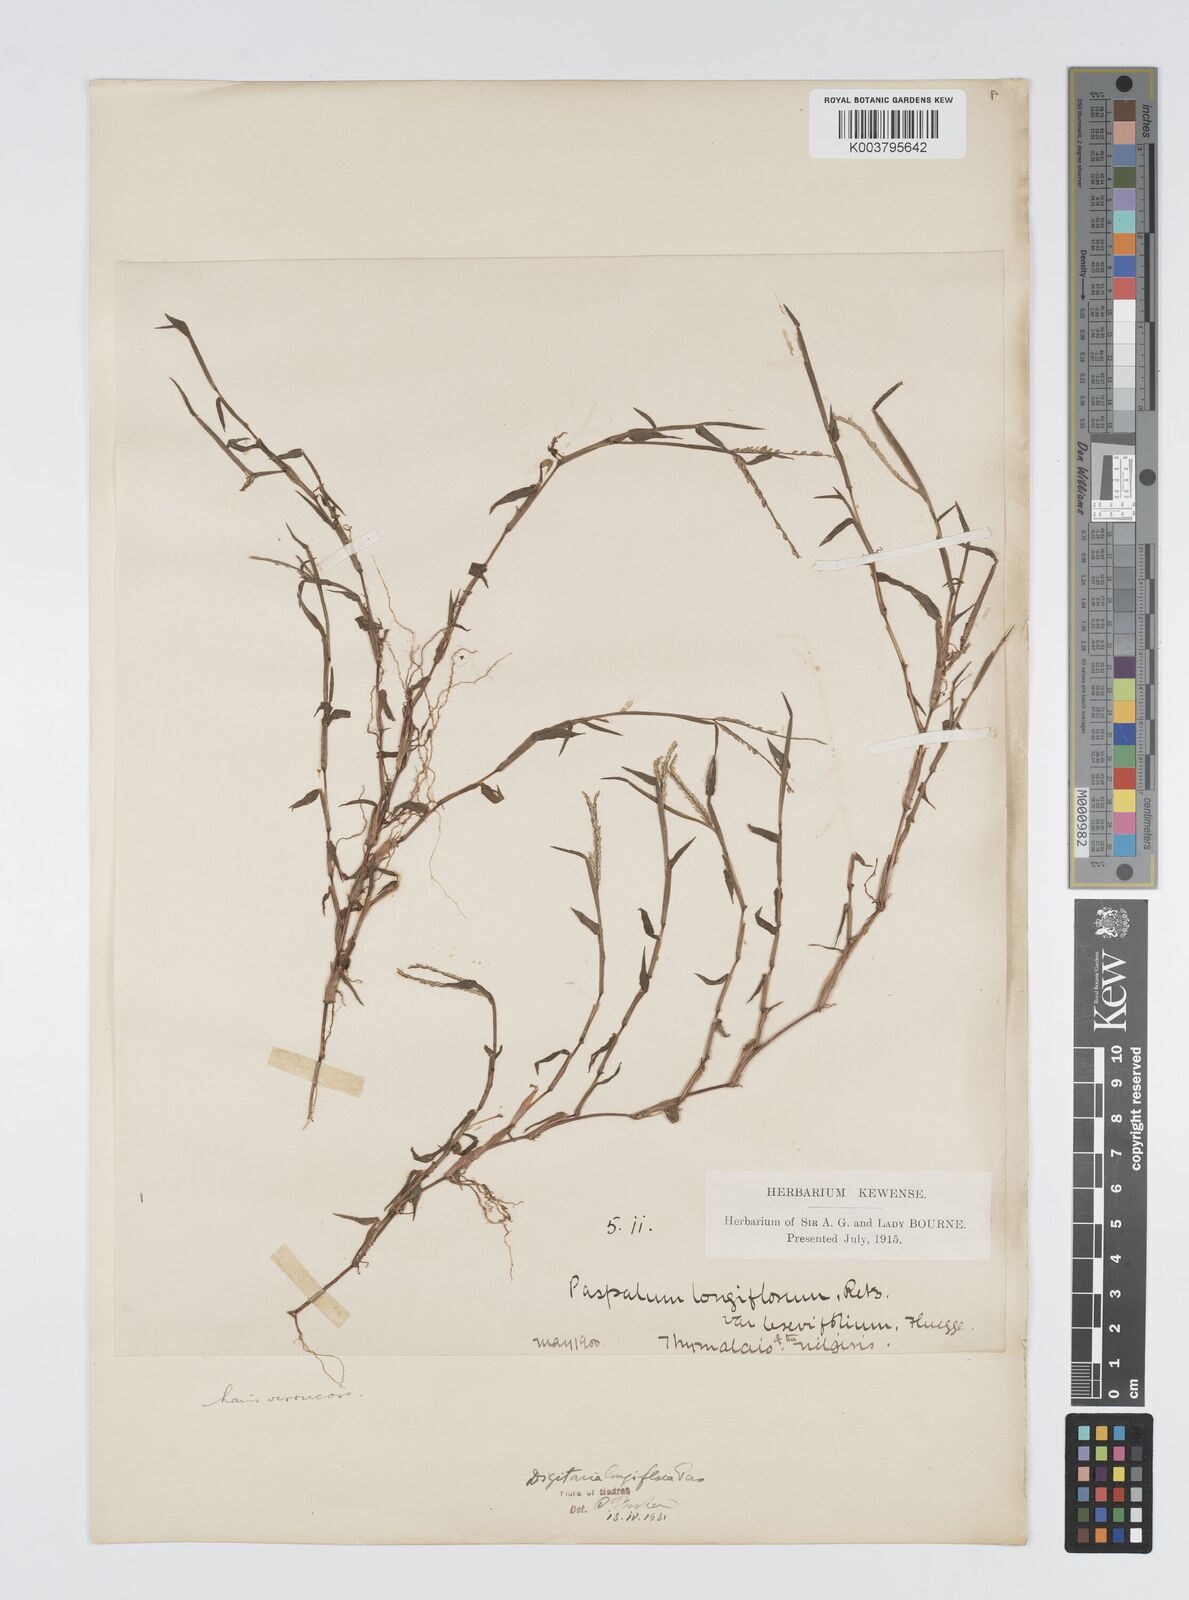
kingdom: Plantae
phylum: Tracheophyta
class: Liliopsida
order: Poales
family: Poaceae
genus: Digitaria
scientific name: Digitaria longiflora
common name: Wire crabgrass
